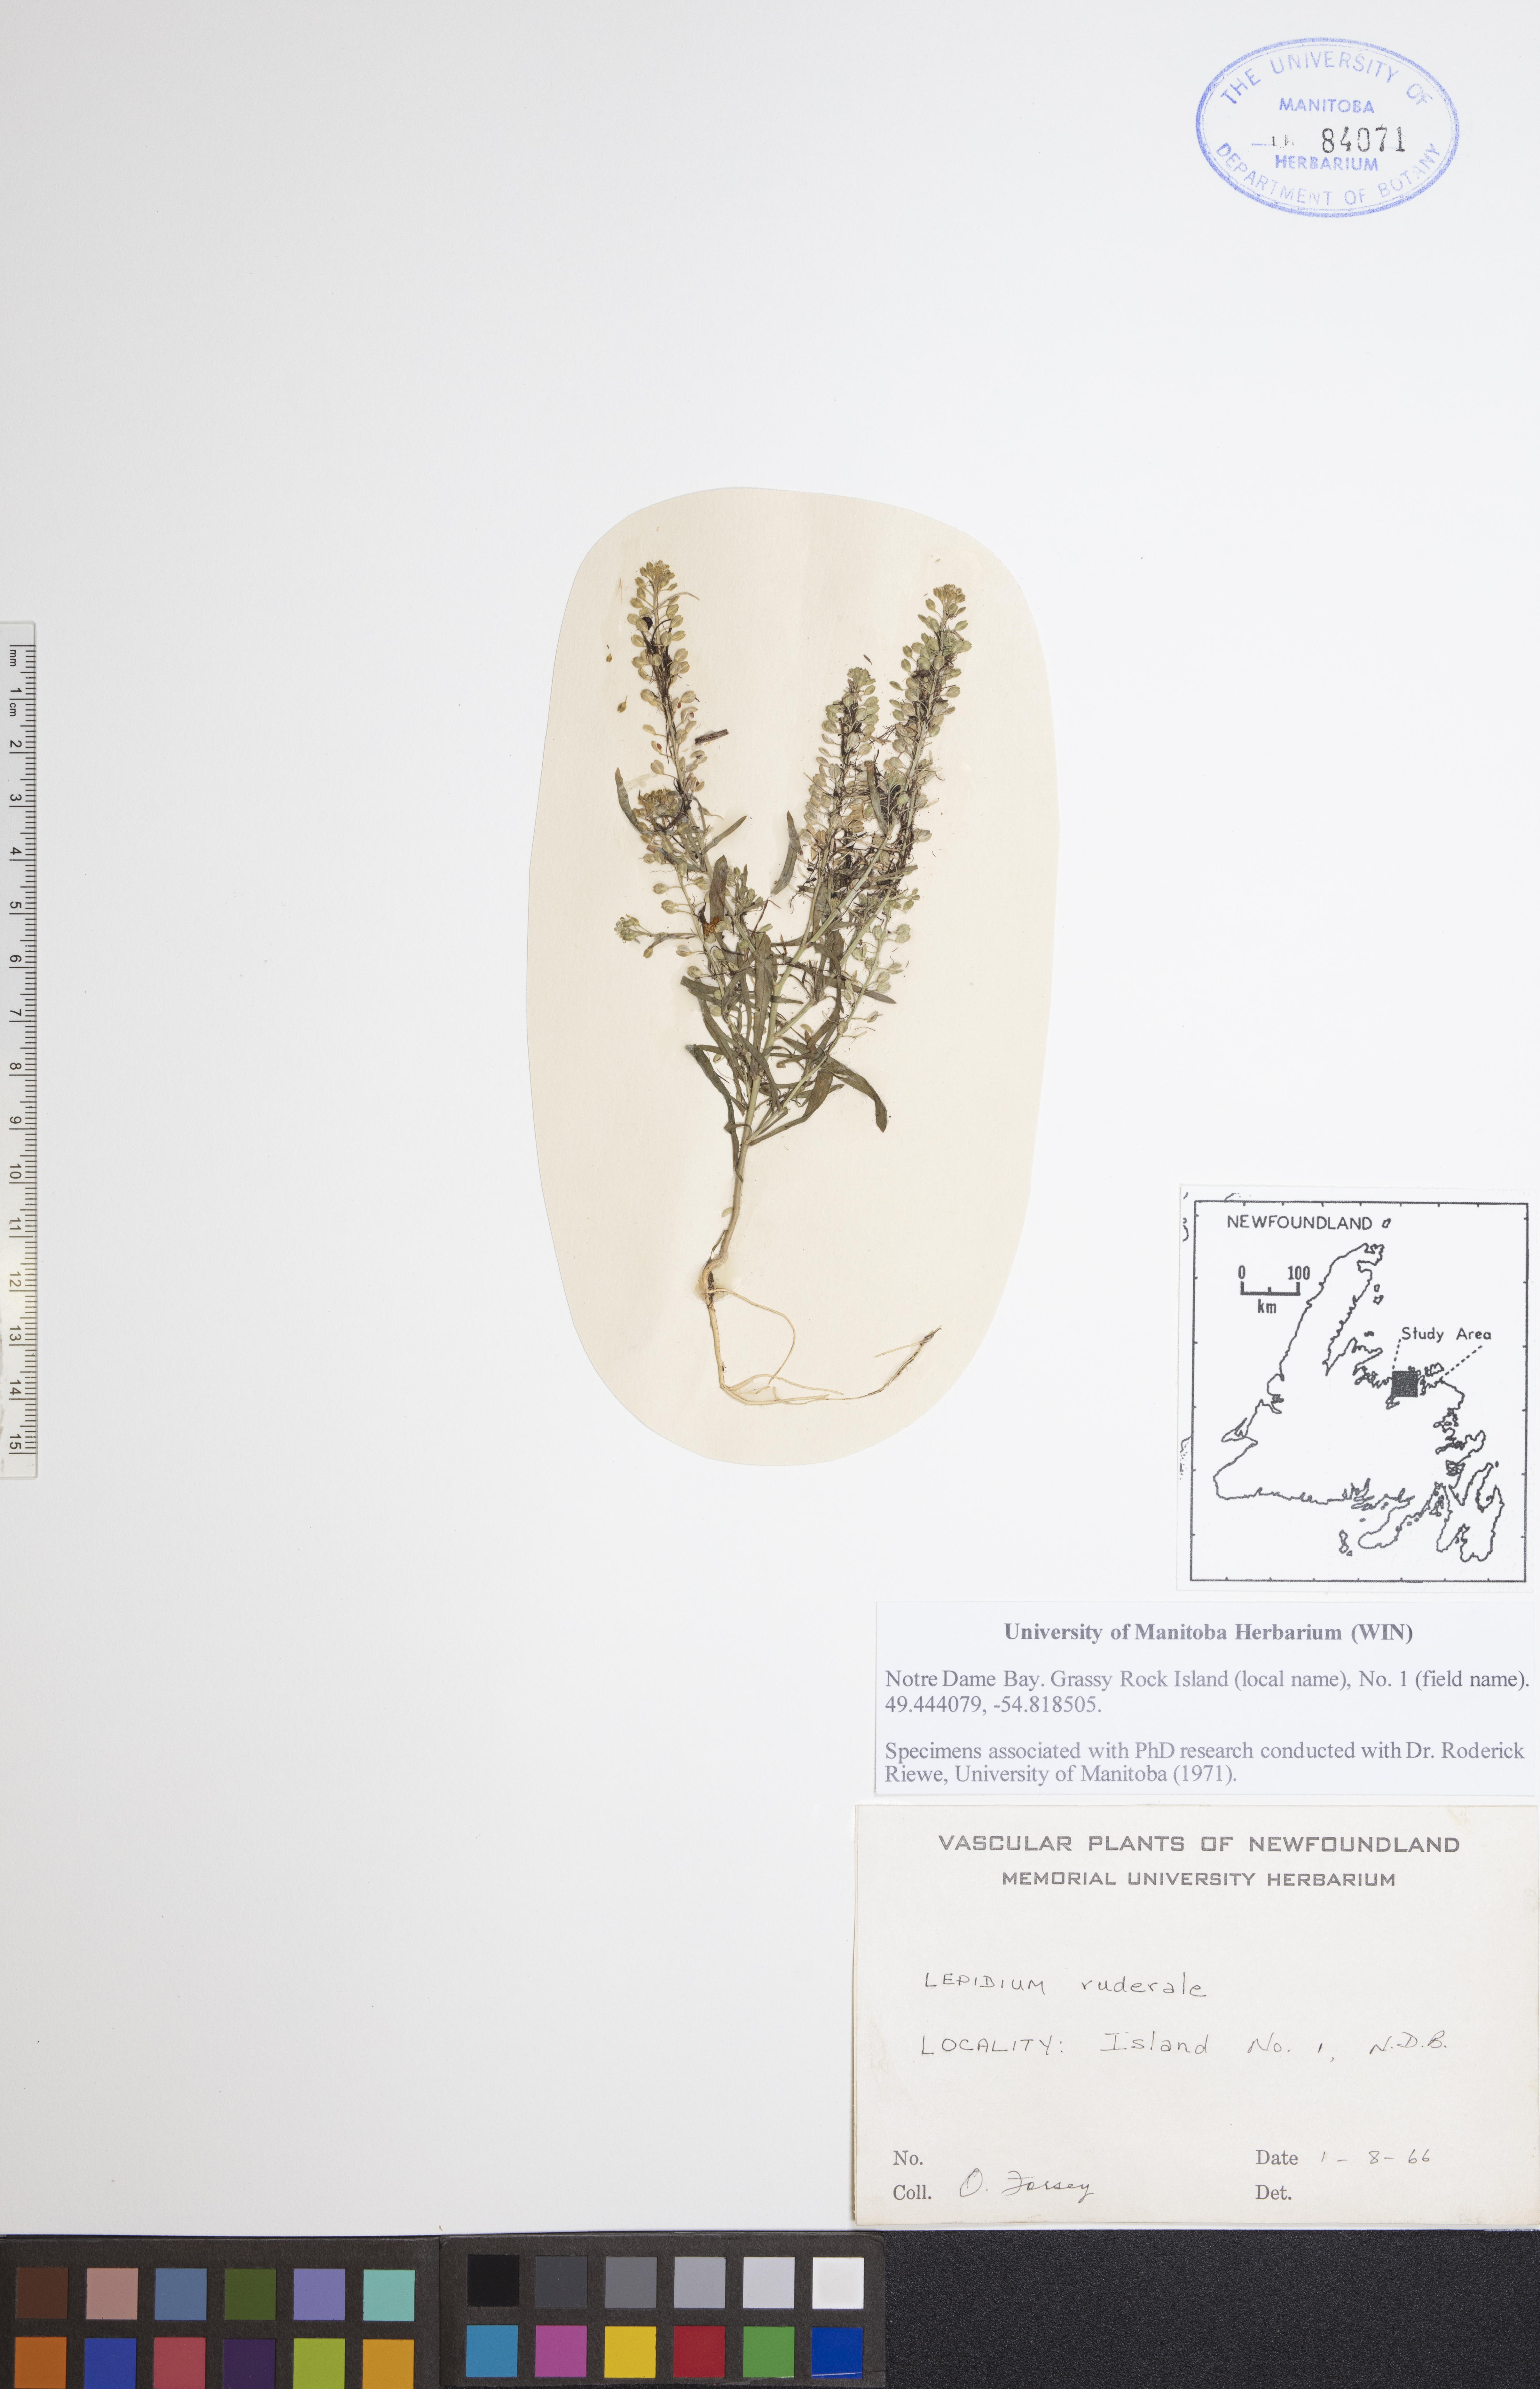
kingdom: Plantae
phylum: Tracheophyta
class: Magnoliopsida
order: Brassicales
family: Brassicaceae
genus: Lepidium
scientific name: Lepidium ruderale
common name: Narrow-leaved pepperwort
